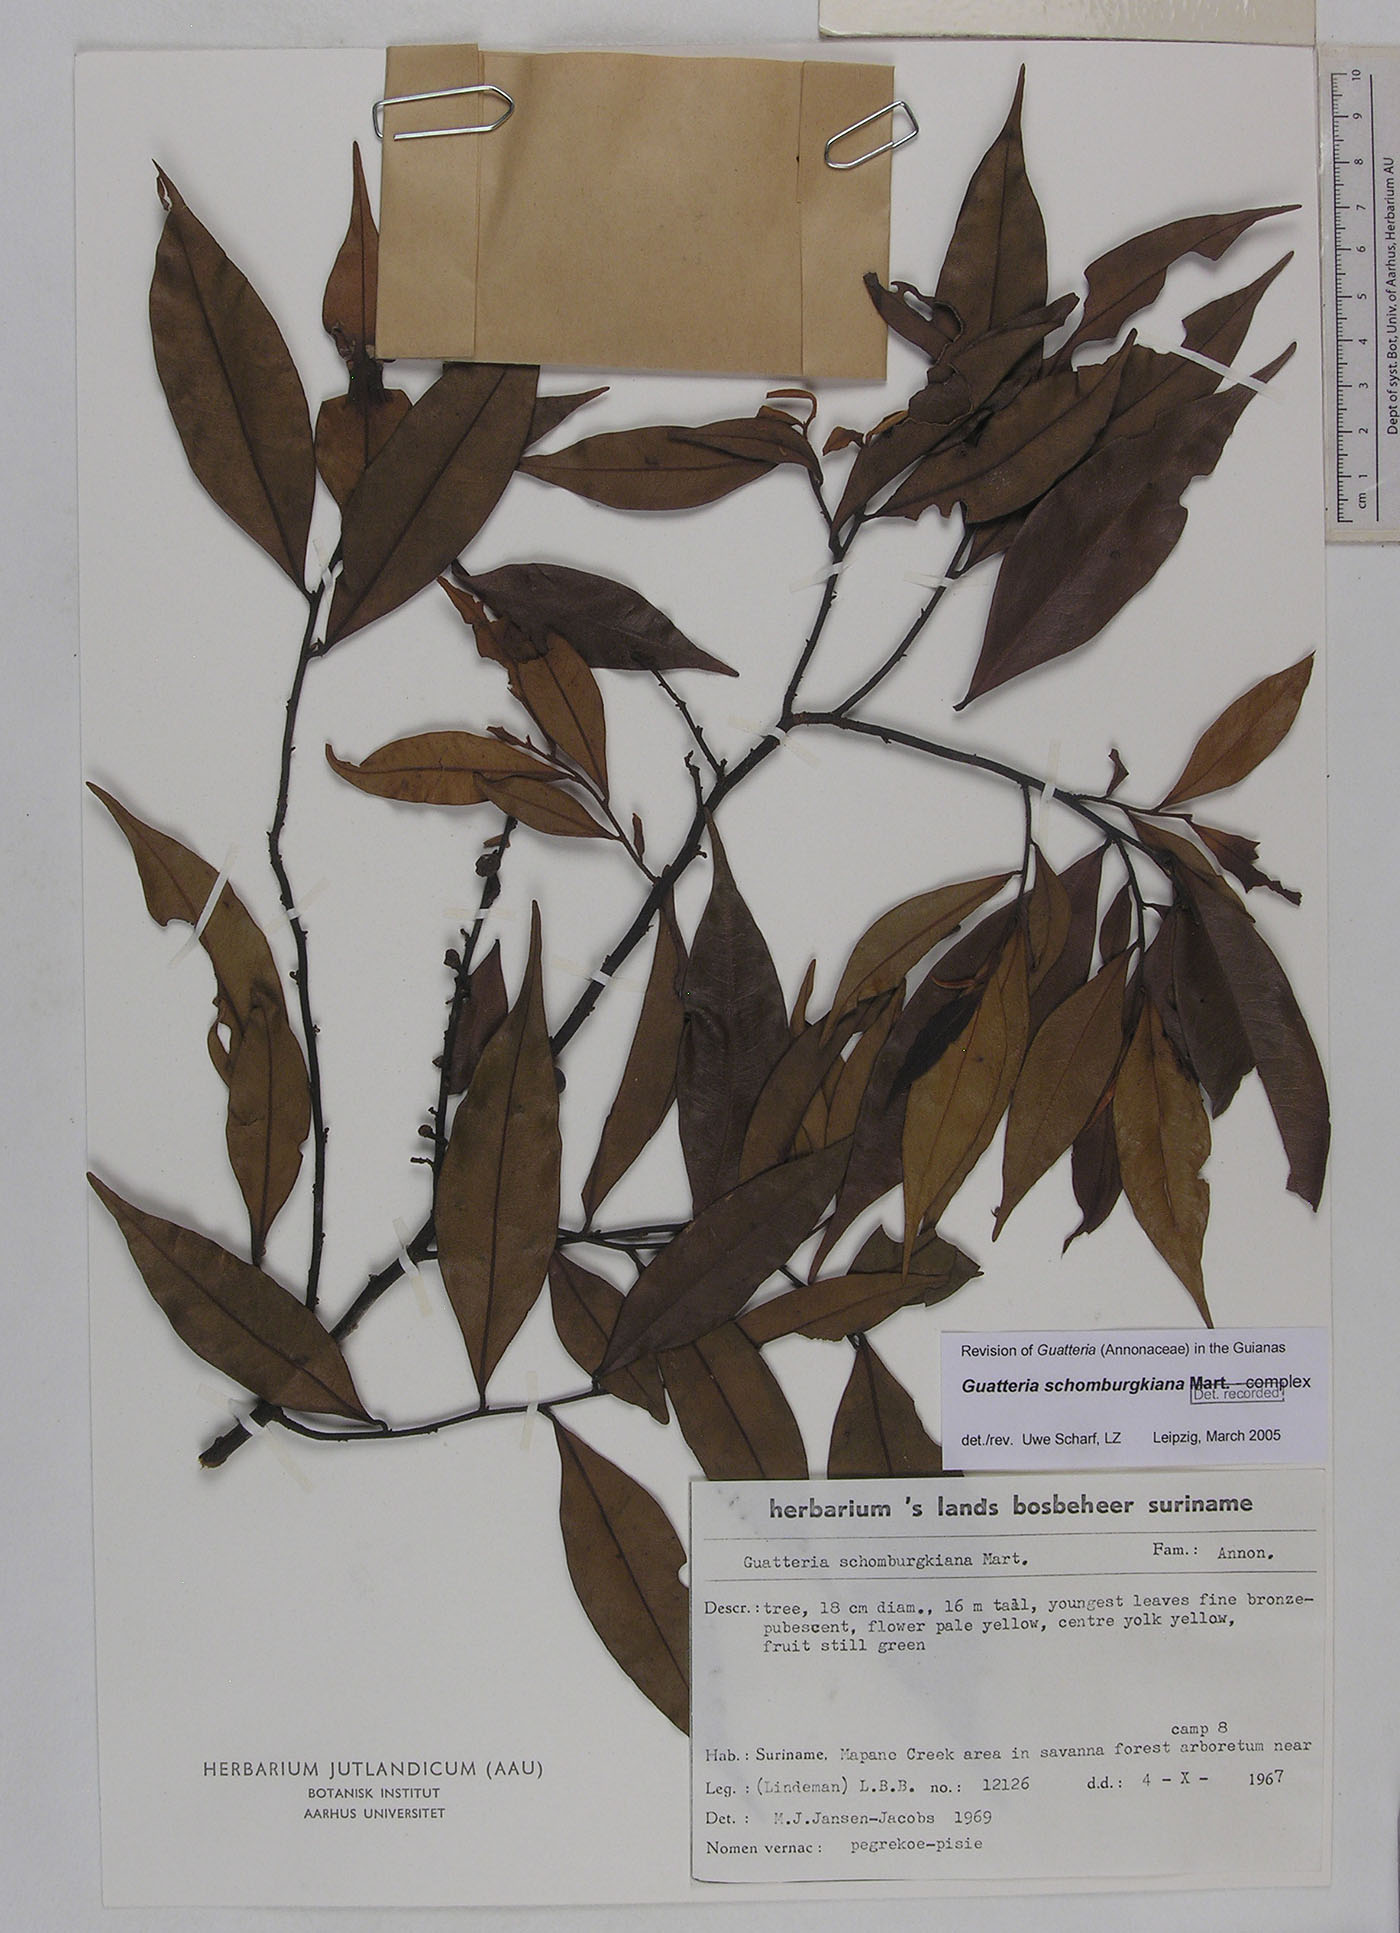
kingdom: Plantae
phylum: Tracheophyta
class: Magnoliopsida
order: Magnoliales
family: Annonaceae
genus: Guatteria
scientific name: Guatteria schomburgkiana
